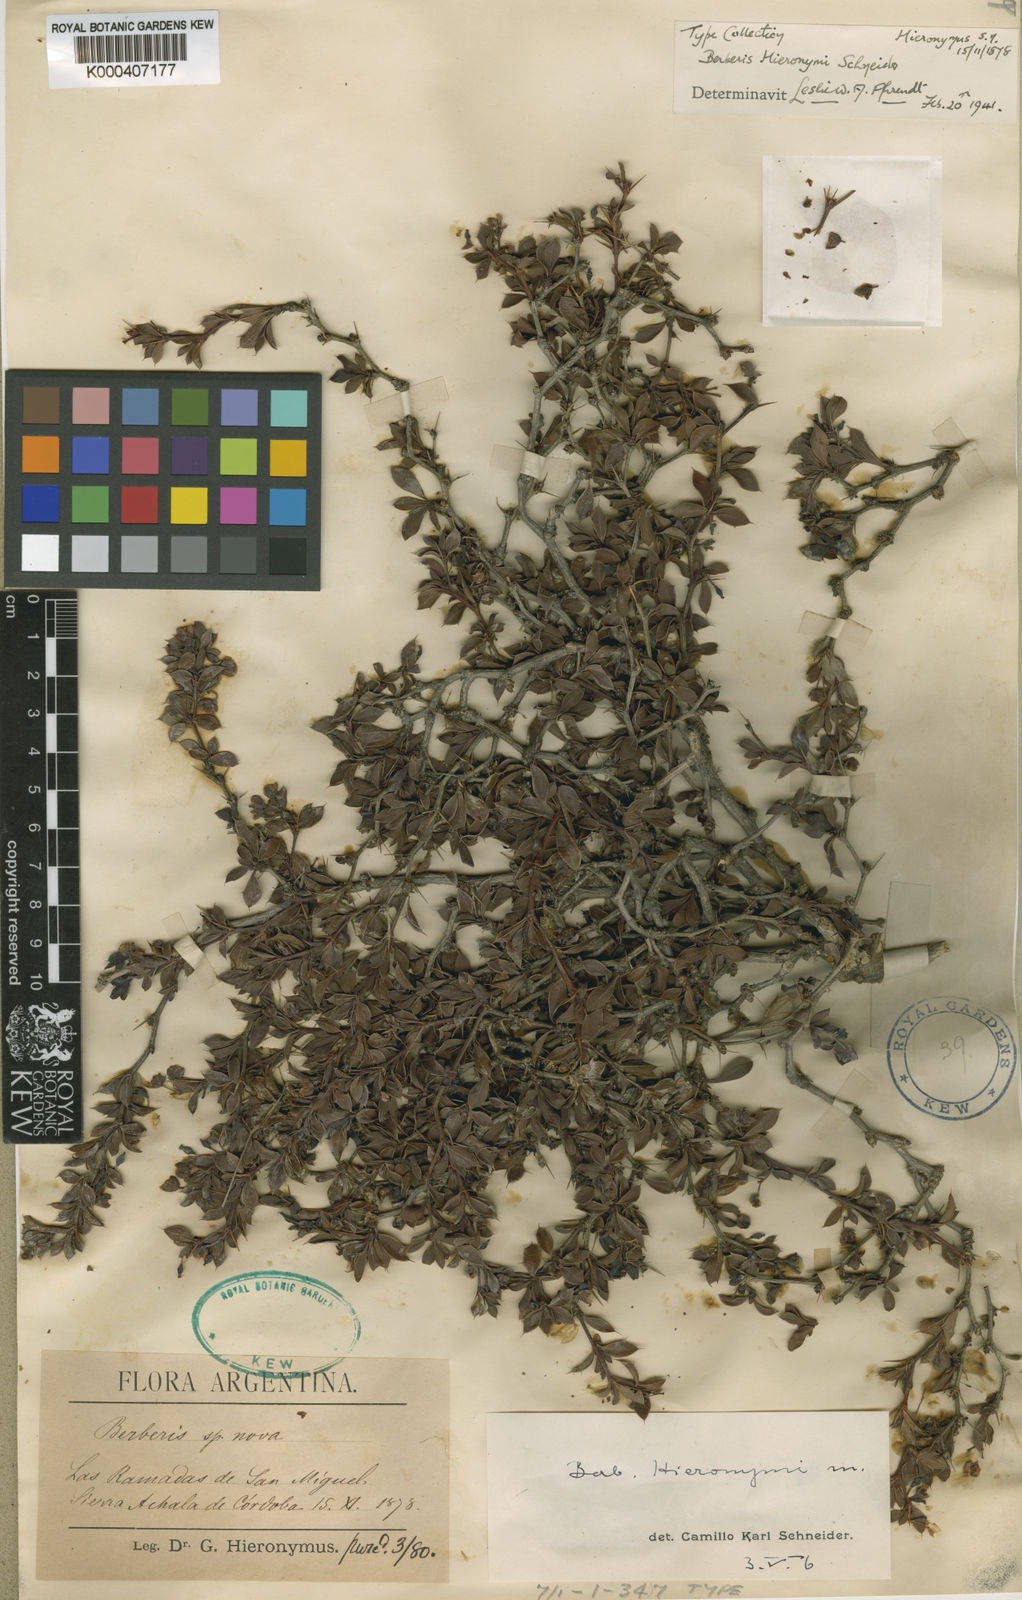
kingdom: Plantae
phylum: Tracheophyta
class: Magnoliopsida
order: Ranunculales
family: Berberidaceae
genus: Berberis
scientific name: Berberis hieronymi
